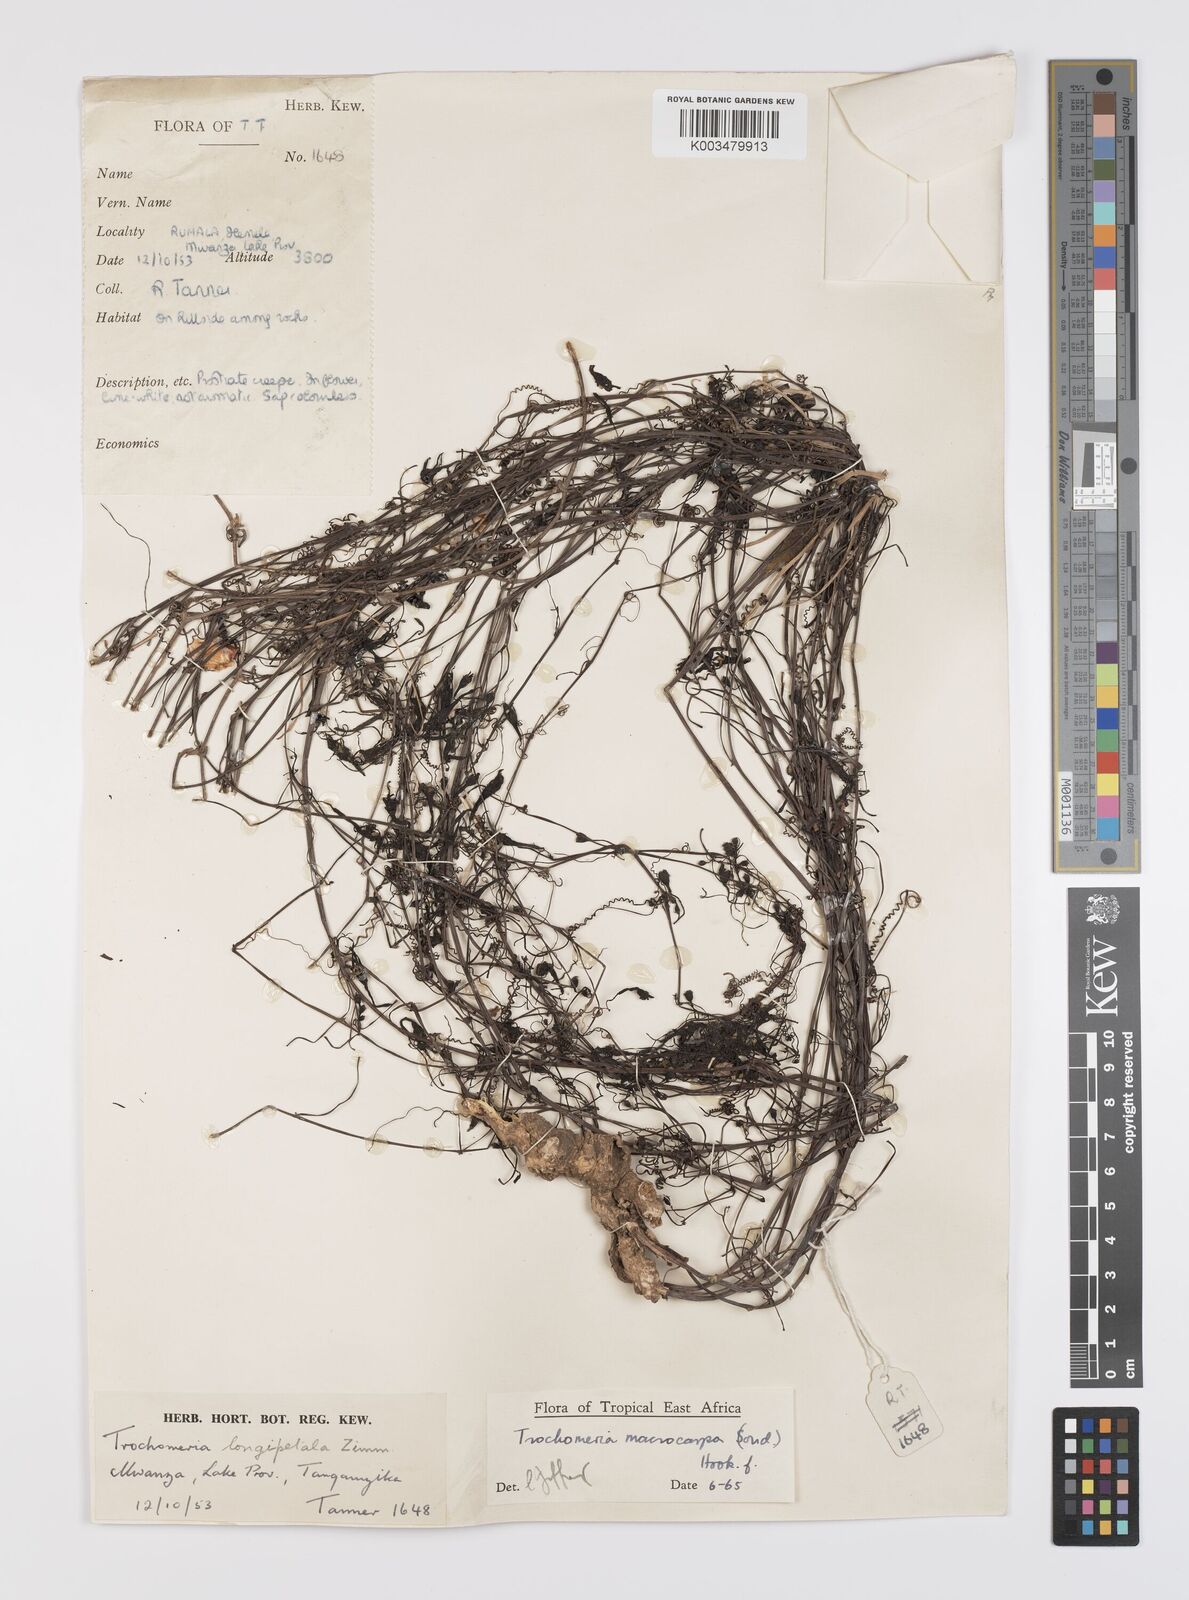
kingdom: Plantae
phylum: Tracheophyta
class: Magnoliopsida
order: Cucurbitales
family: Cucurbitaceae
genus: Trochomeria
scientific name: Trochomeria macrocarpa
